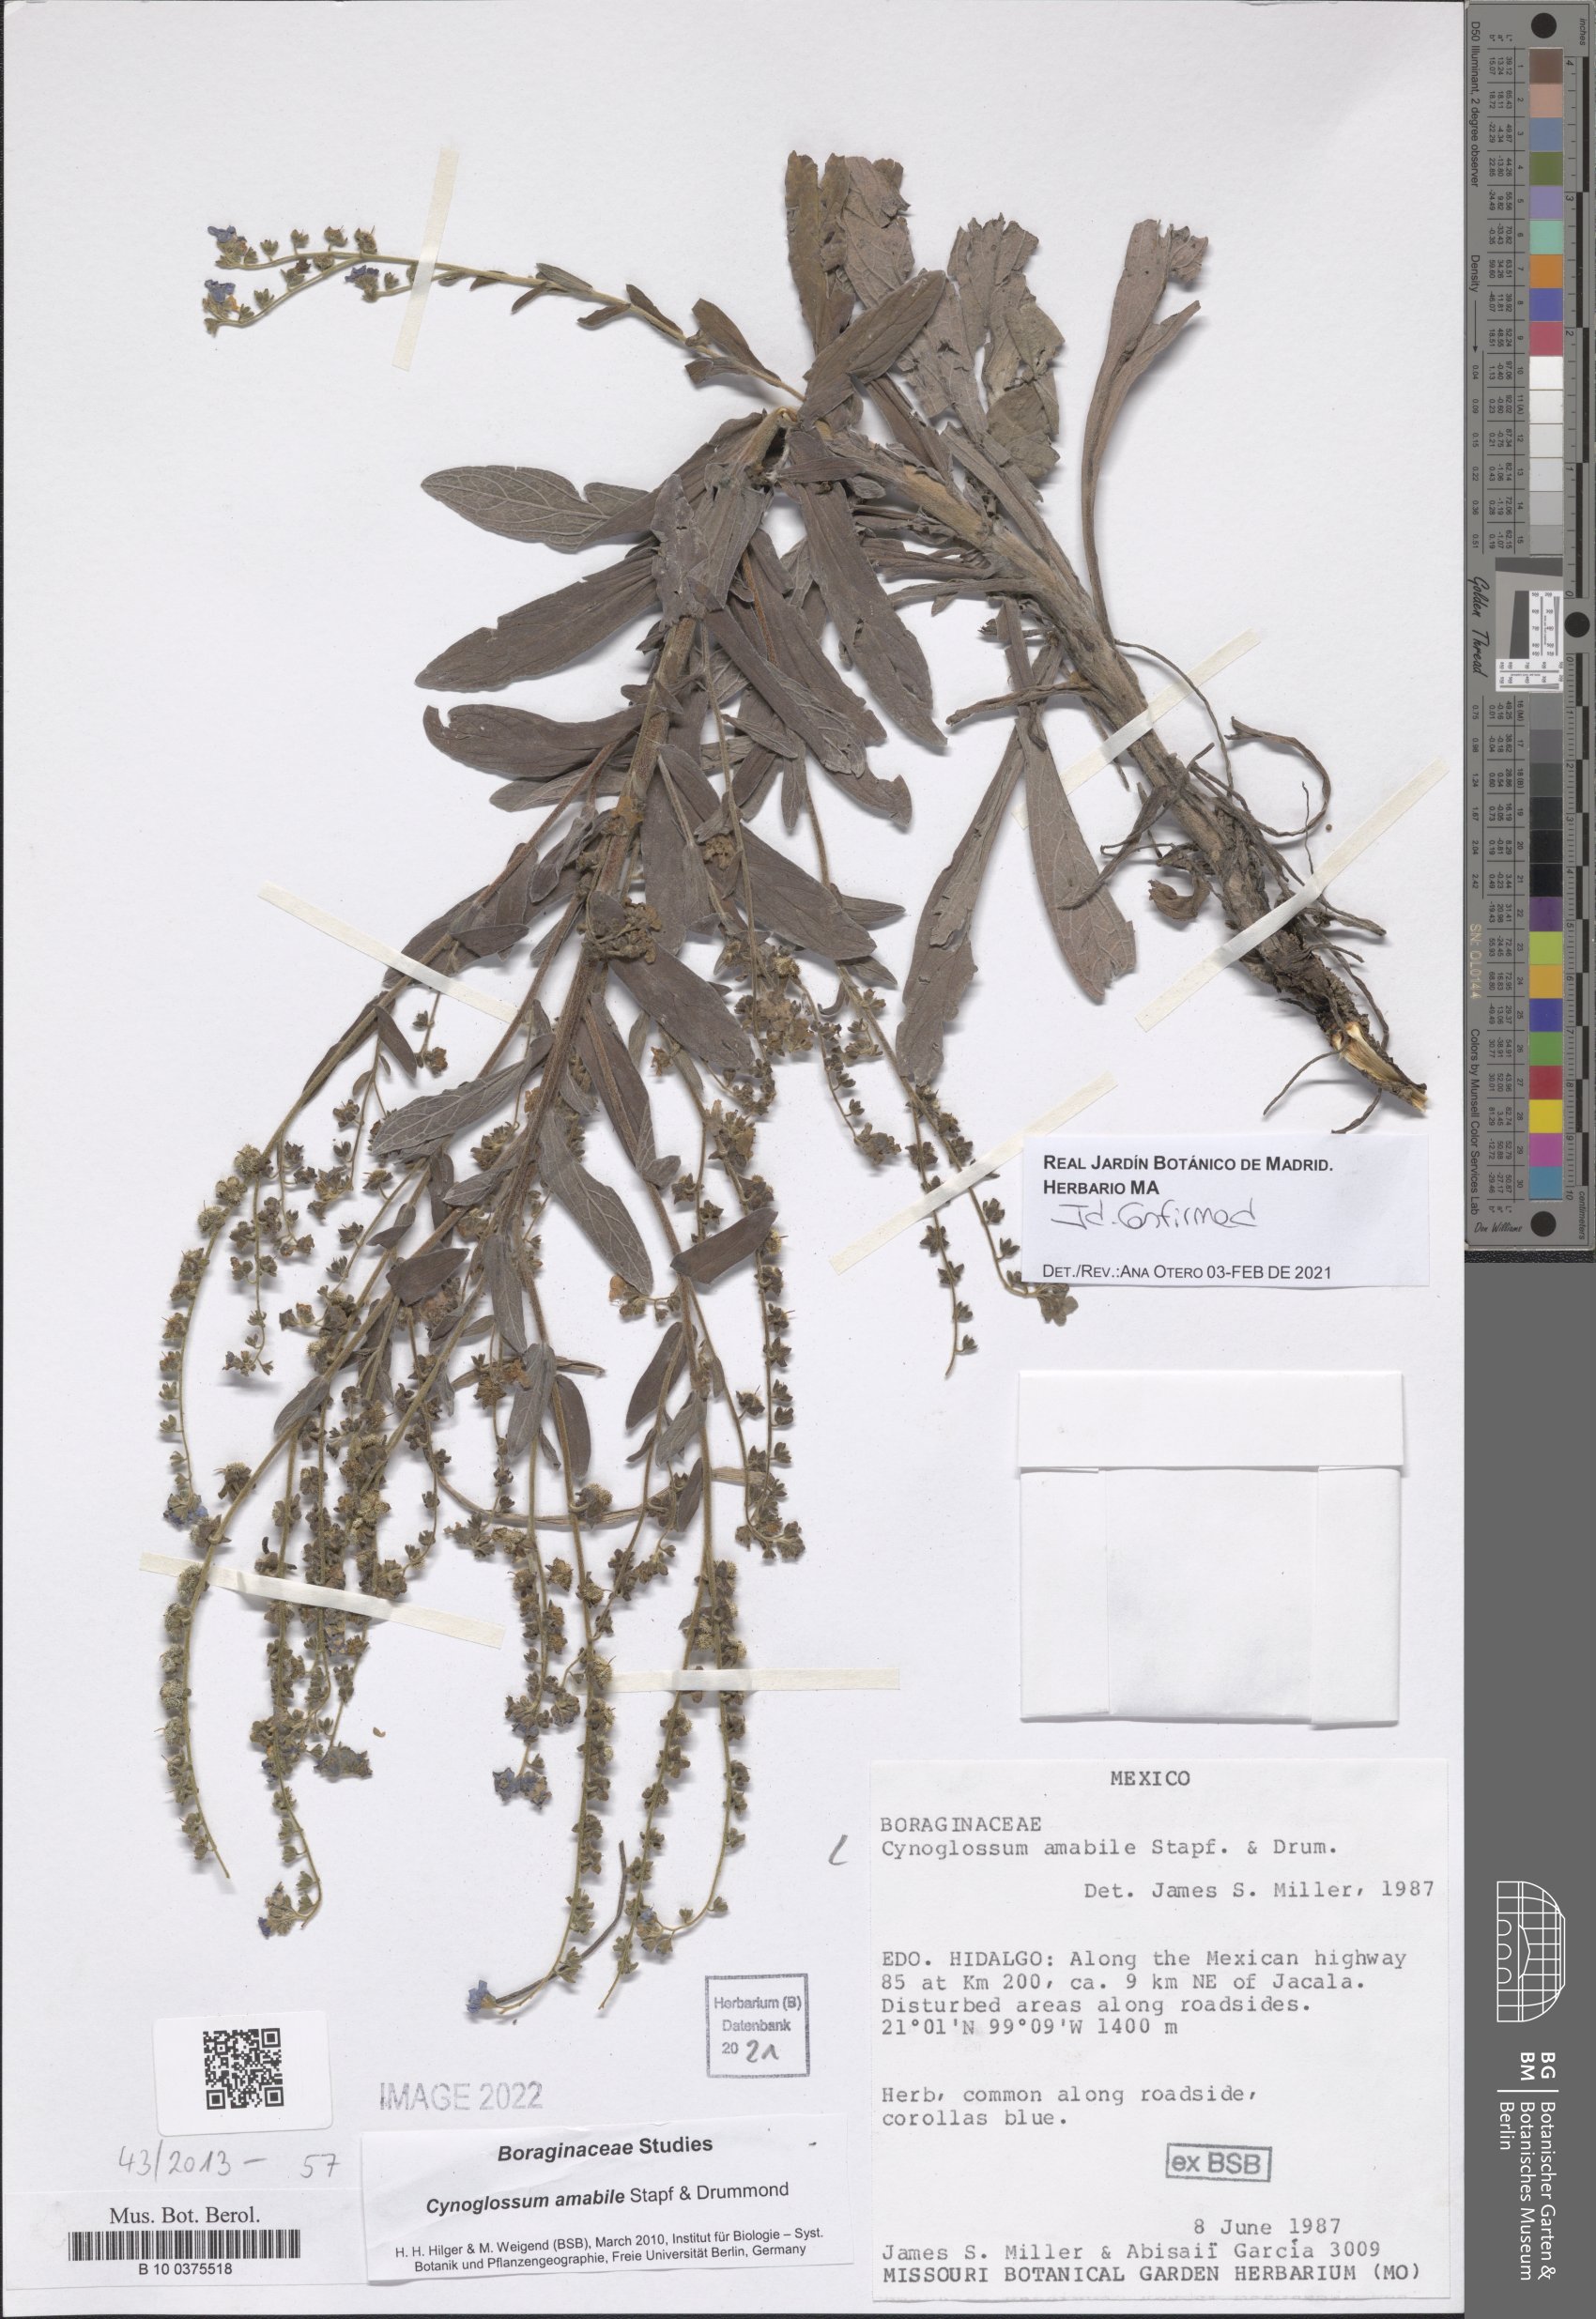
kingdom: Plantae
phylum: Tracheophyta
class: Magnoliopsida
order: Boraginales
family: Boraginaceae
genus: Cynoglossum
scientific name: Cynoglossum amabile
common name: Chinese hound's tongue
